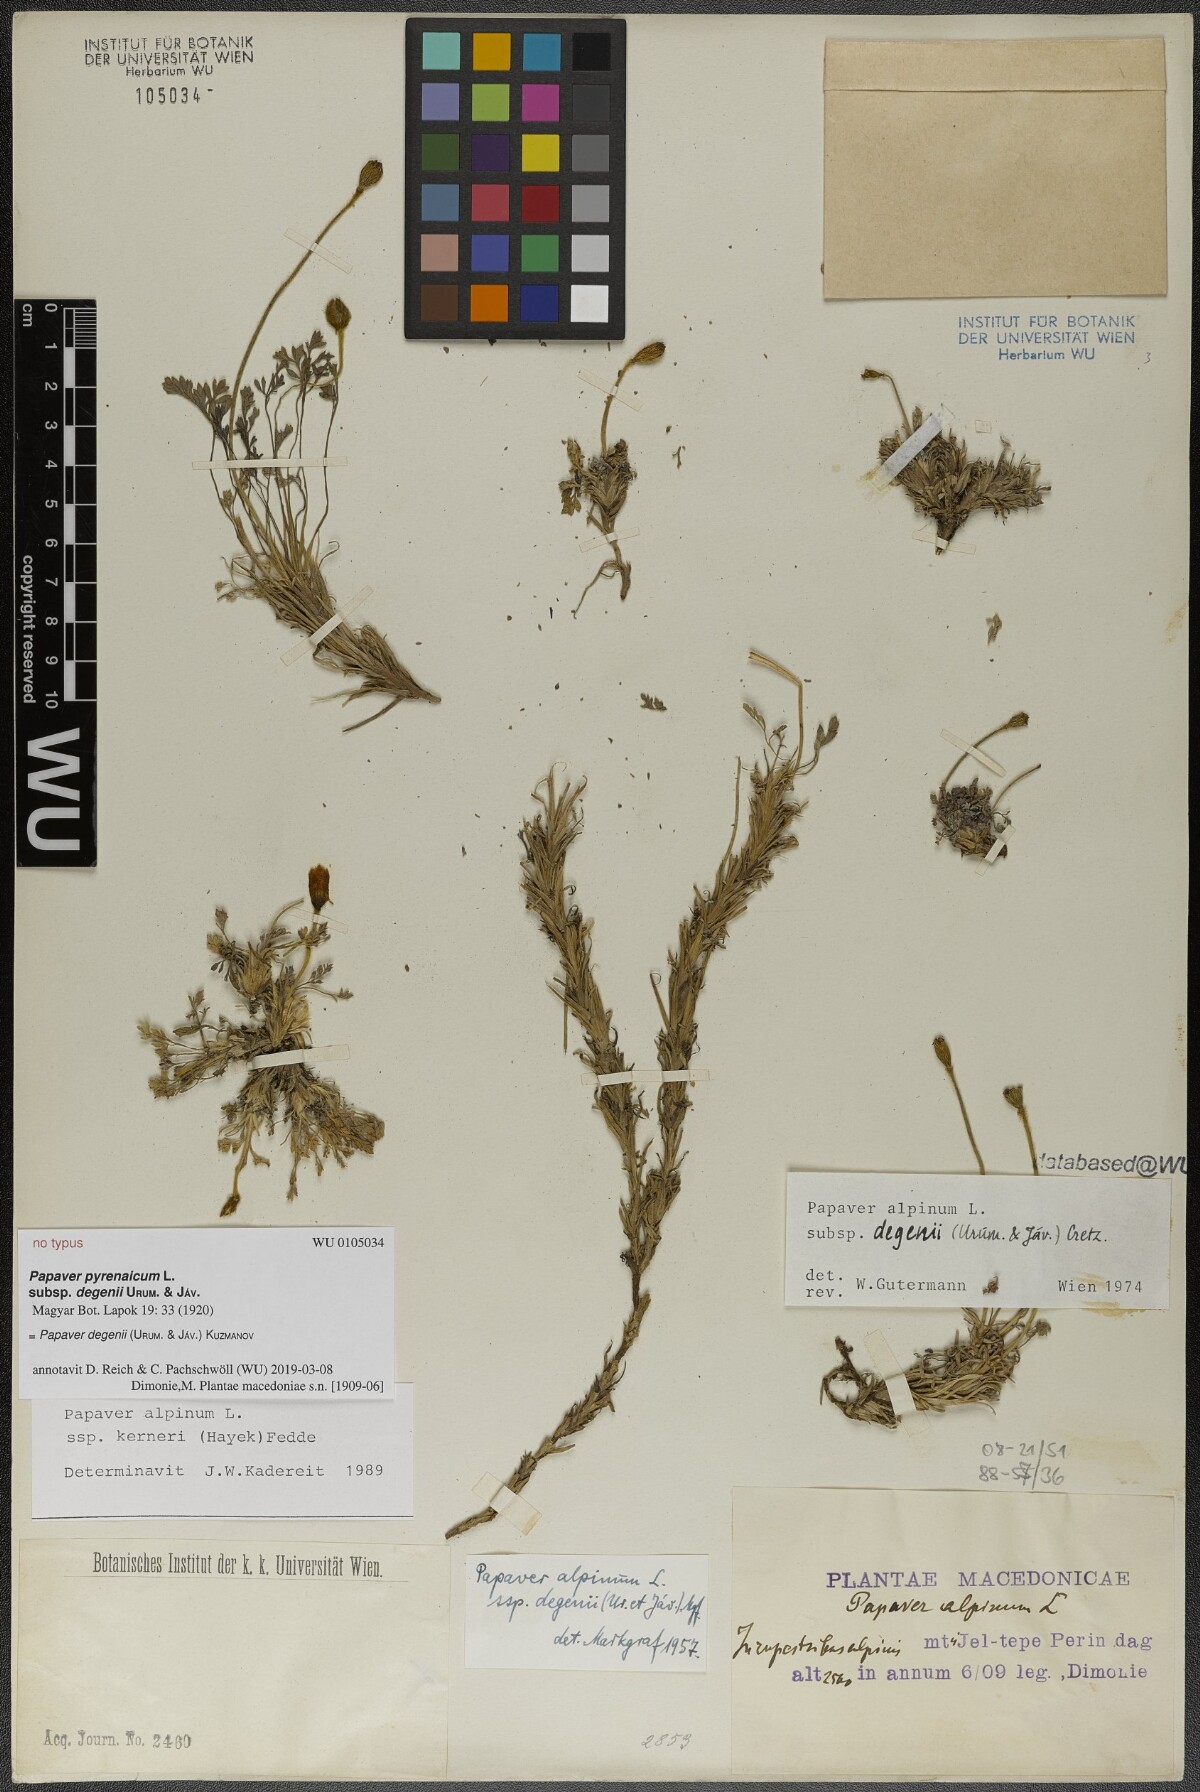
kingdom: Plantae
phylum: Tracheophyta
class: Magnoliopsida
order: Ranunculales
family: Papaveraceae
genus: Papaver
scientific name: Papaver alpinum
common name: Austrian poppy
